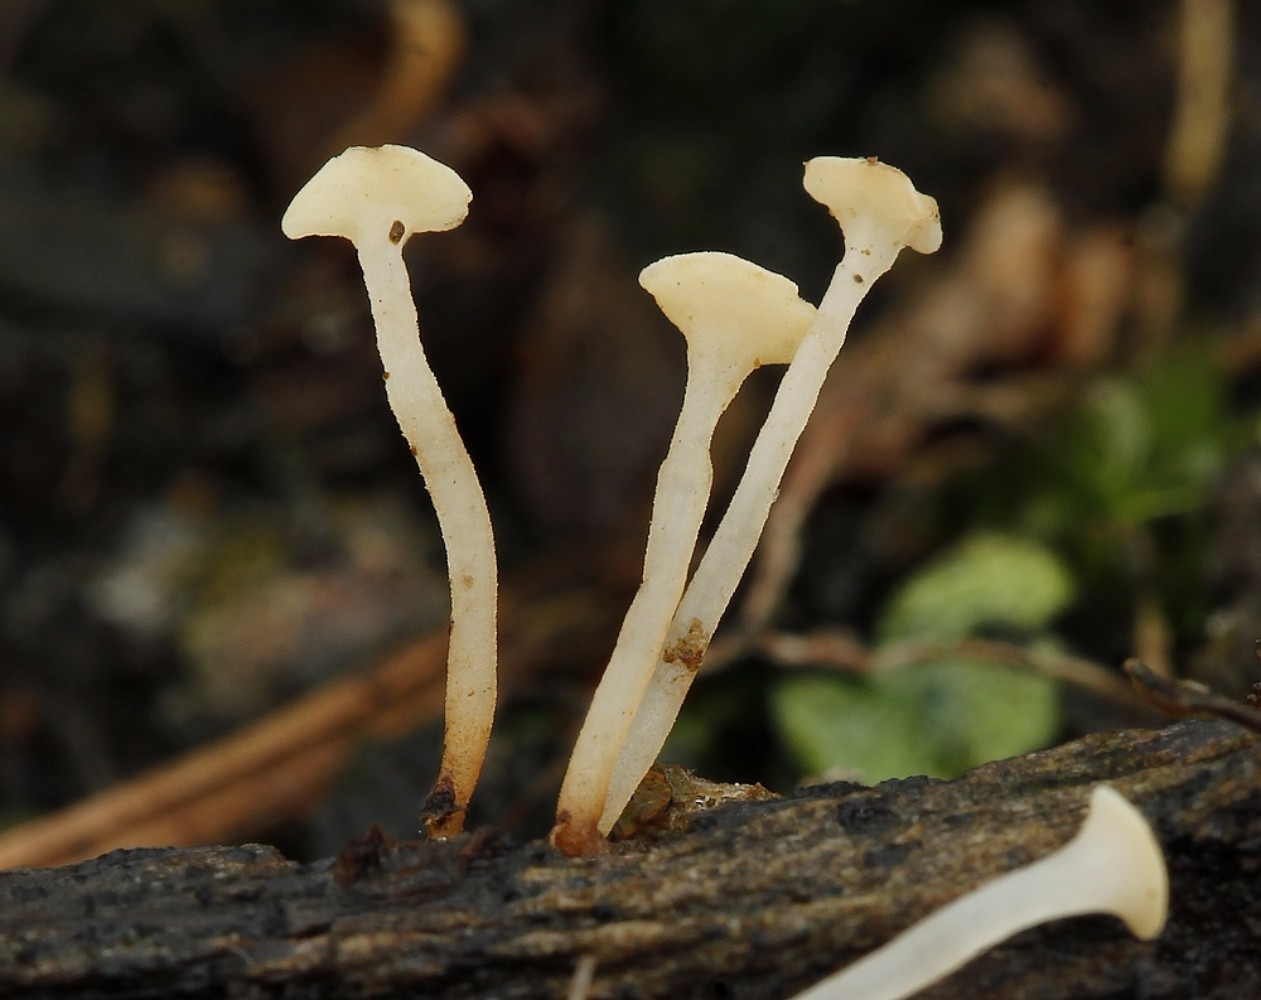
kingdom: Fungi
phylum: Ascomycota
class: Leotiomycetes
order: Helotiales
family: Helotiaceae
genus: Hymenoscyphus
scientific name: Hymenoscyphus menthae
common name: eng-stilkskive
